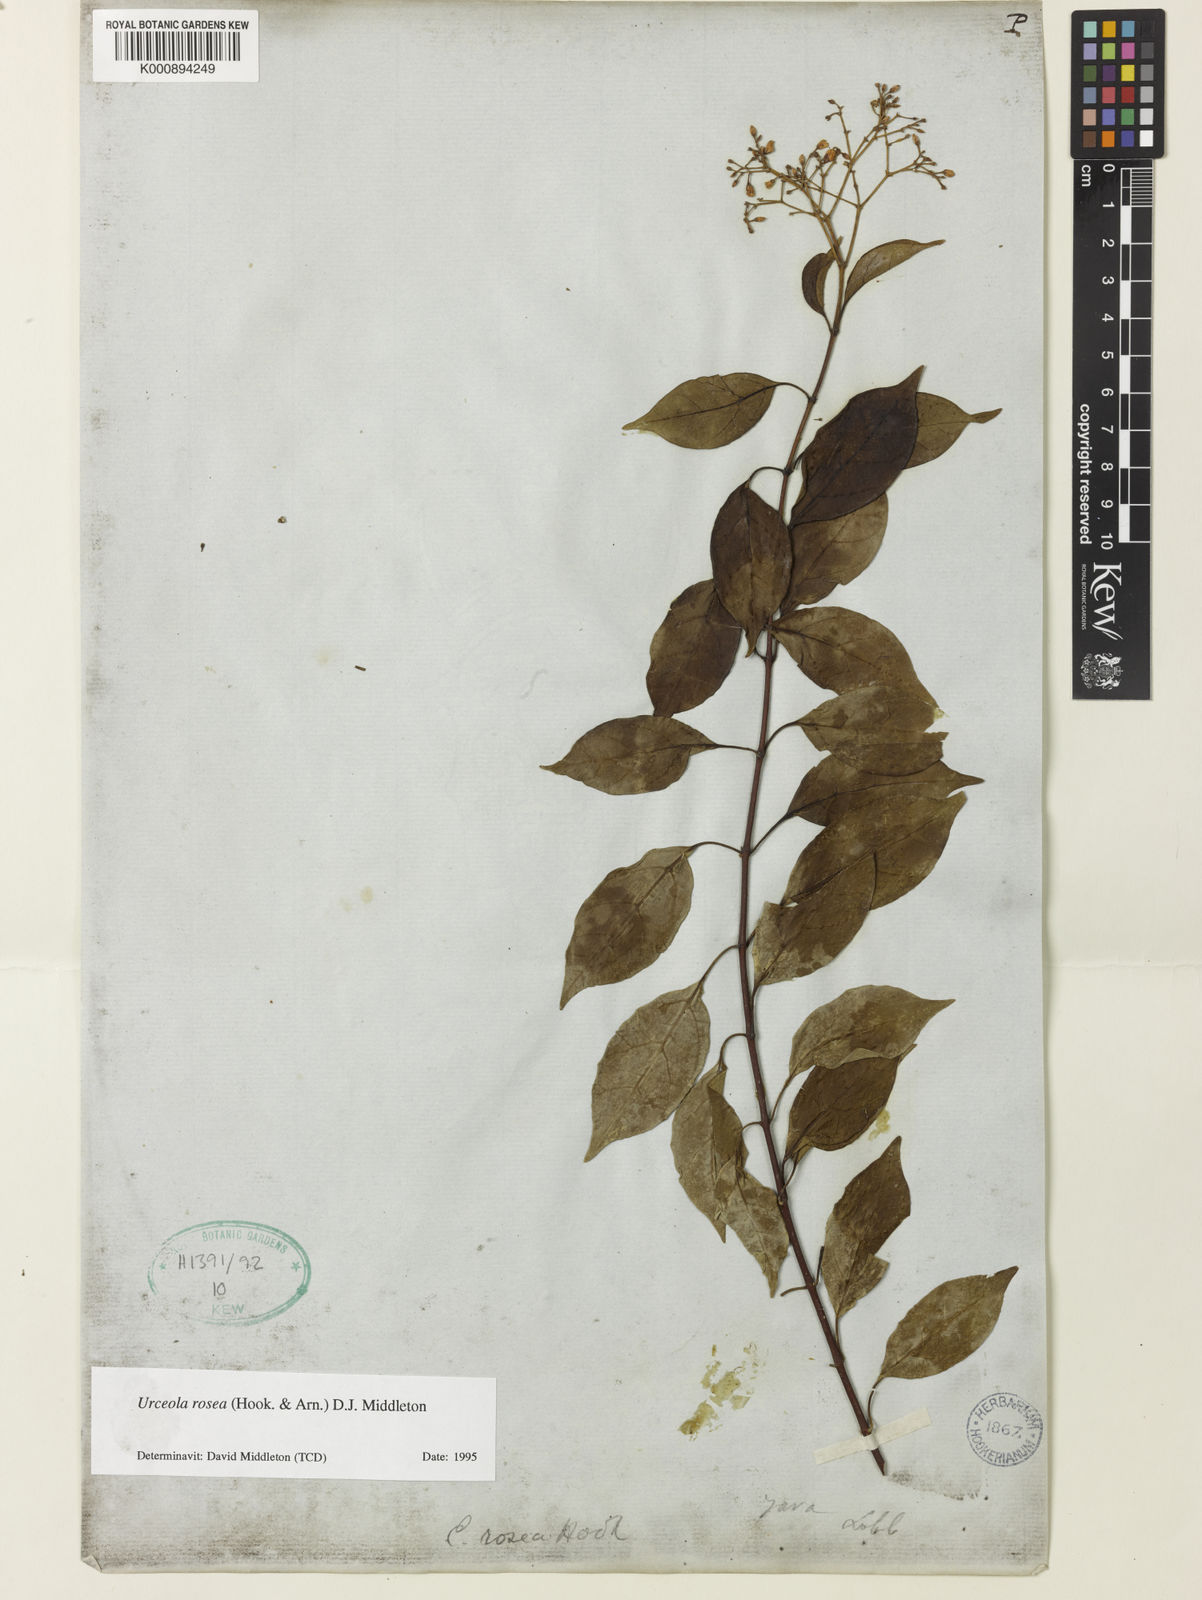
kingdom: Plantae
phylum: Tracheophyta
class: Magnoliopsida
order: Gentianales
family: Apocynaceae
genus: Urceola
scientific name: Urceola rosea
